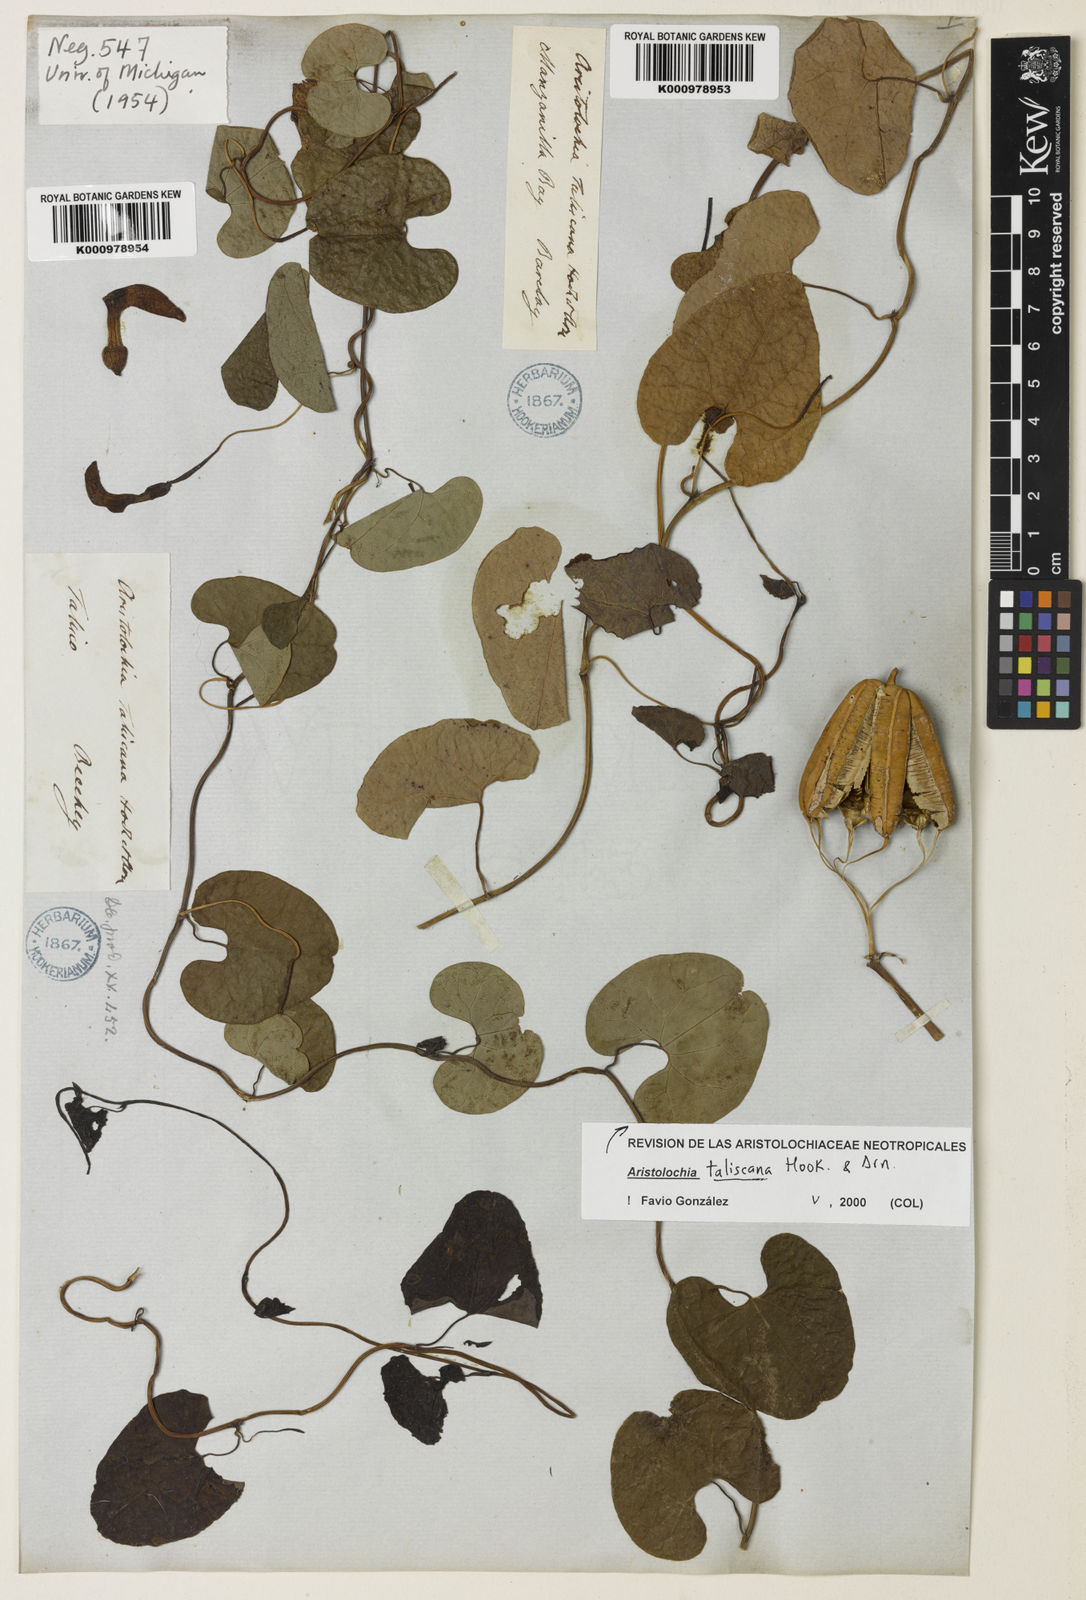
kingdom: Plantae
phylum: Tracheophyta
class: Magnoliopsida
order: Piperales
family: Aristolochiaceae
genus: Aristolochia
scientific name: Aristolochia taliscana
